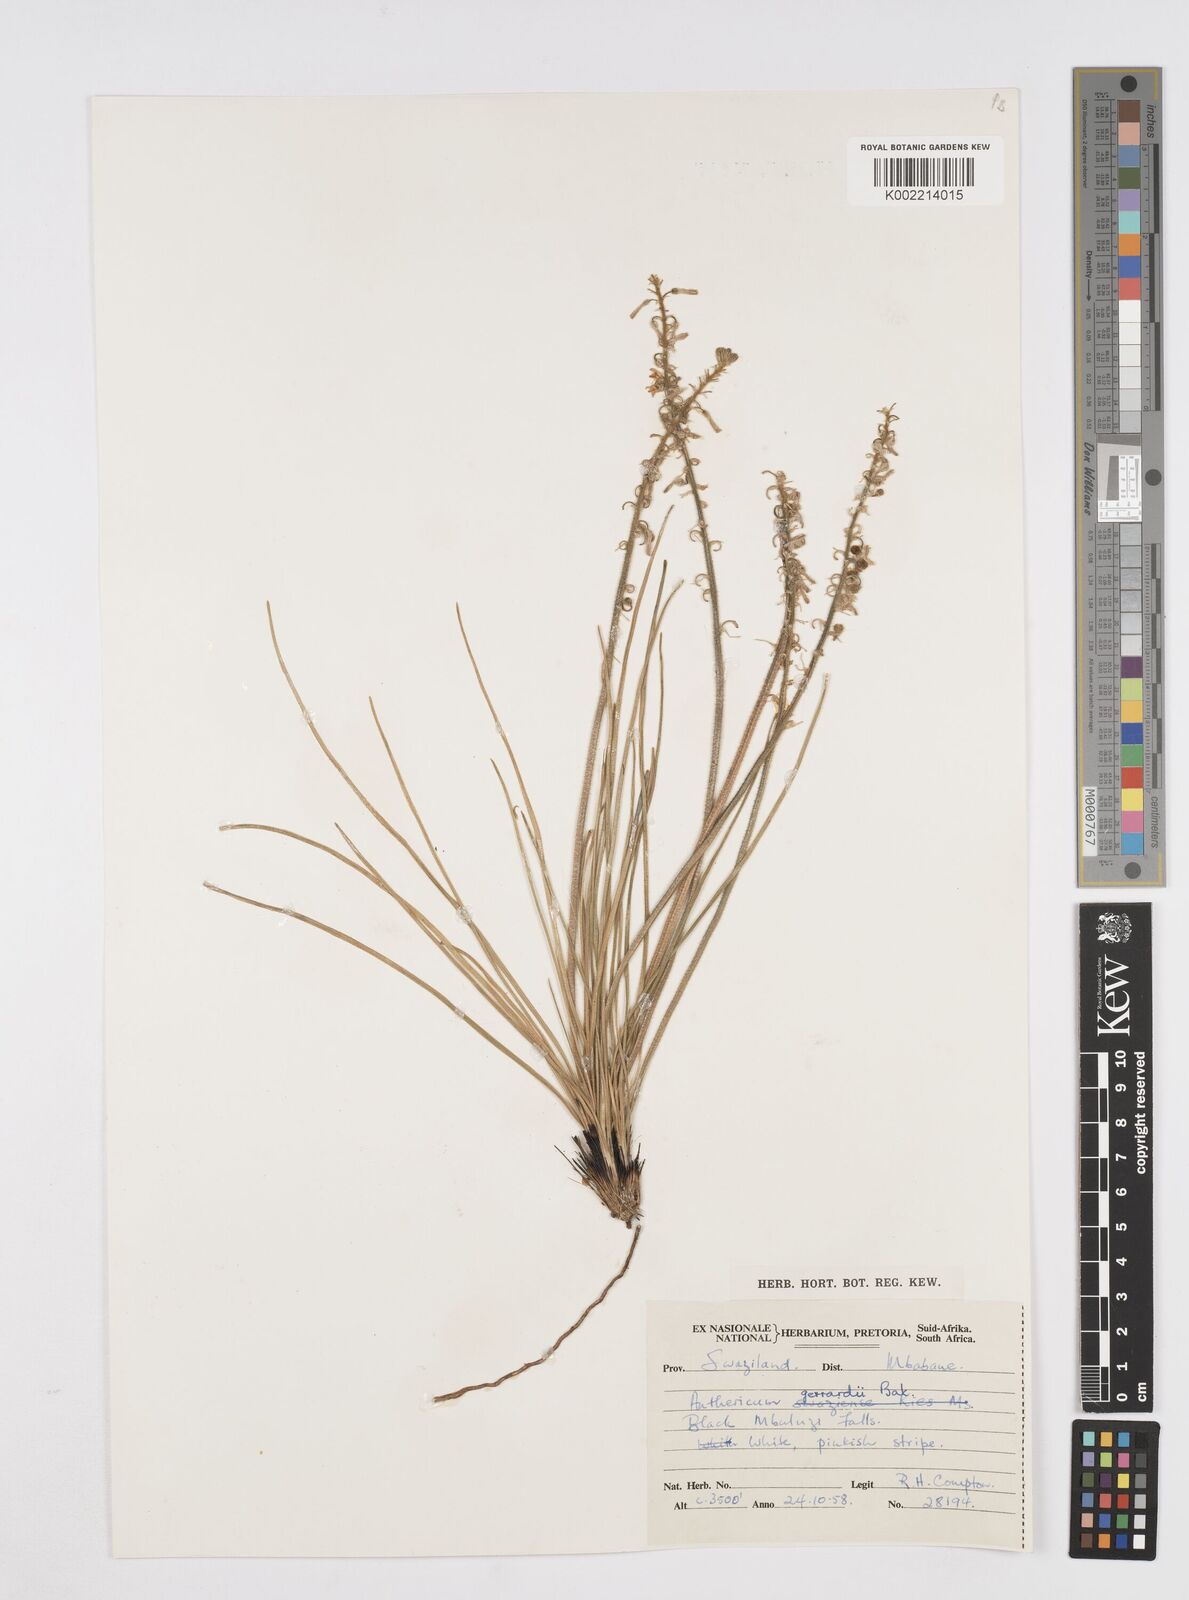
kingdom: Plantae
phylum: Tracheophyta
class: Liliopsida
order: Asparagales
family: Asphodelaceae
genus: Trachyandra
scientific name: Trachyandra gerrardii
